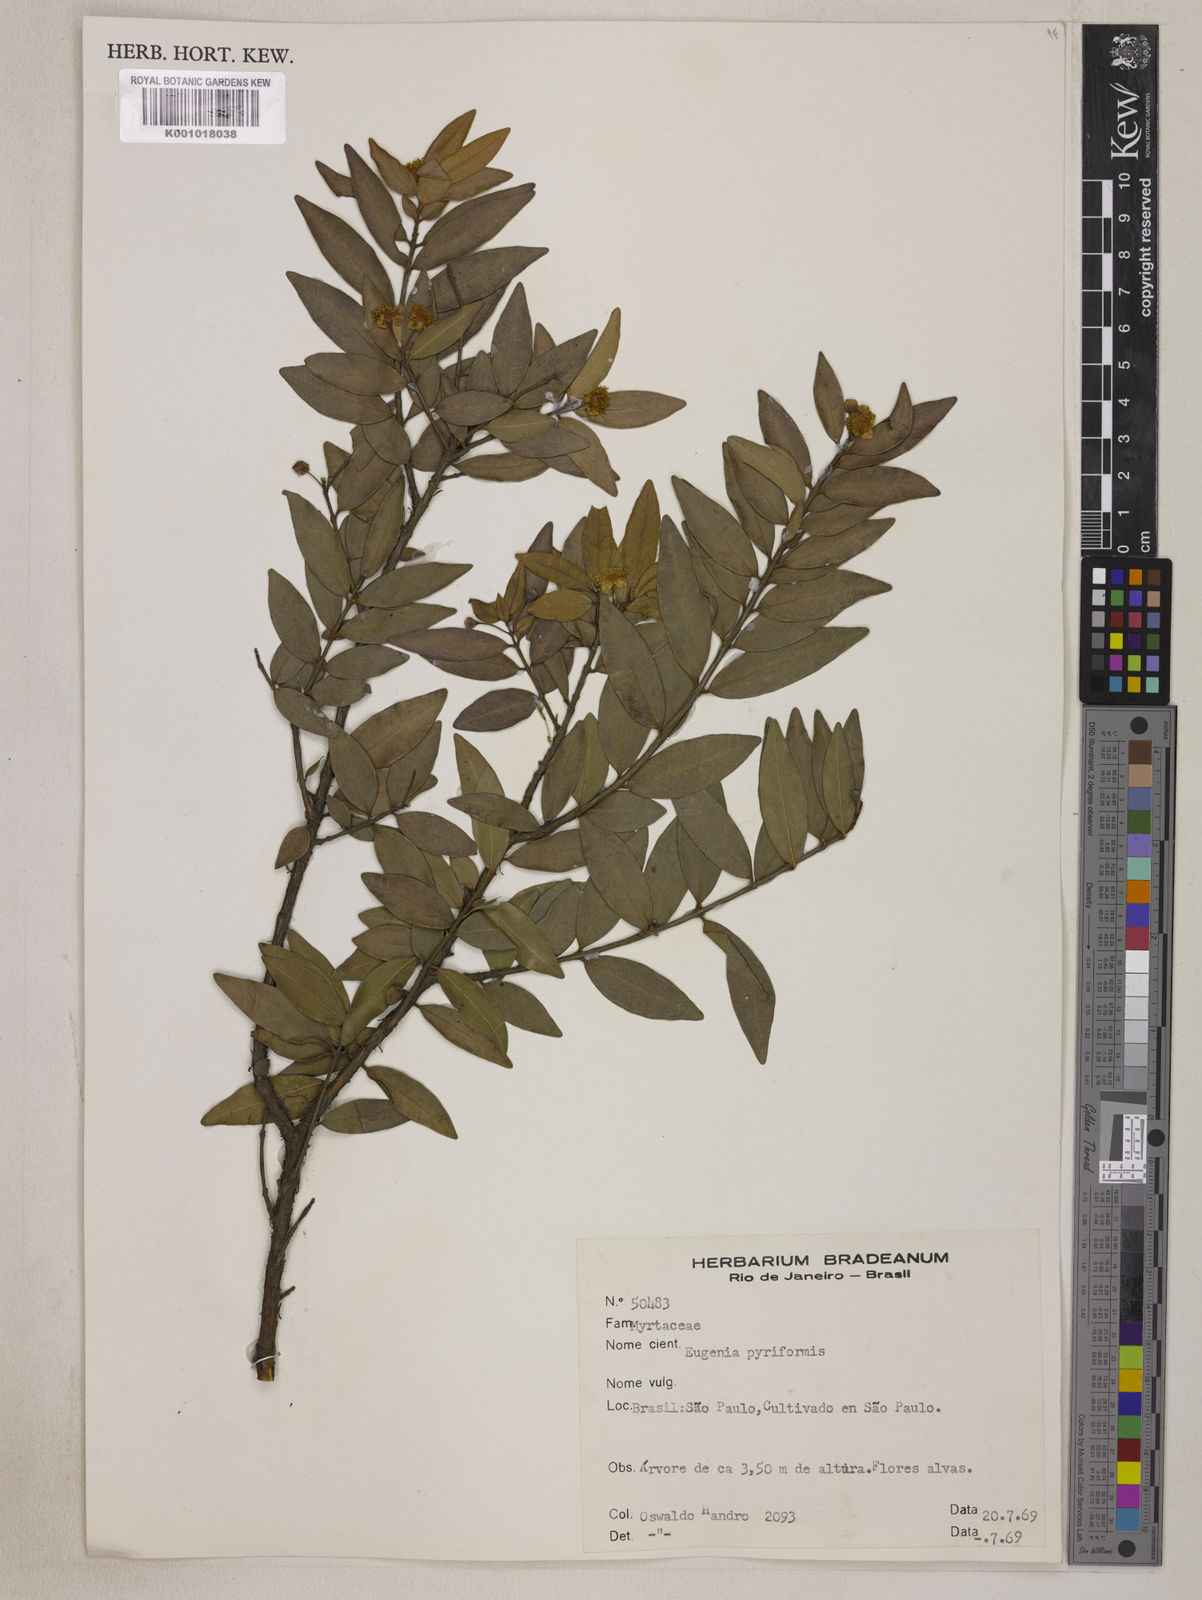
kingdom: Plantae
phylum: Tracheophyta
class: Magnoliopsida
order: Myrtales
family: Myrtaceae
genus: Eugenia
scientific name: Eugenia pyriformis
